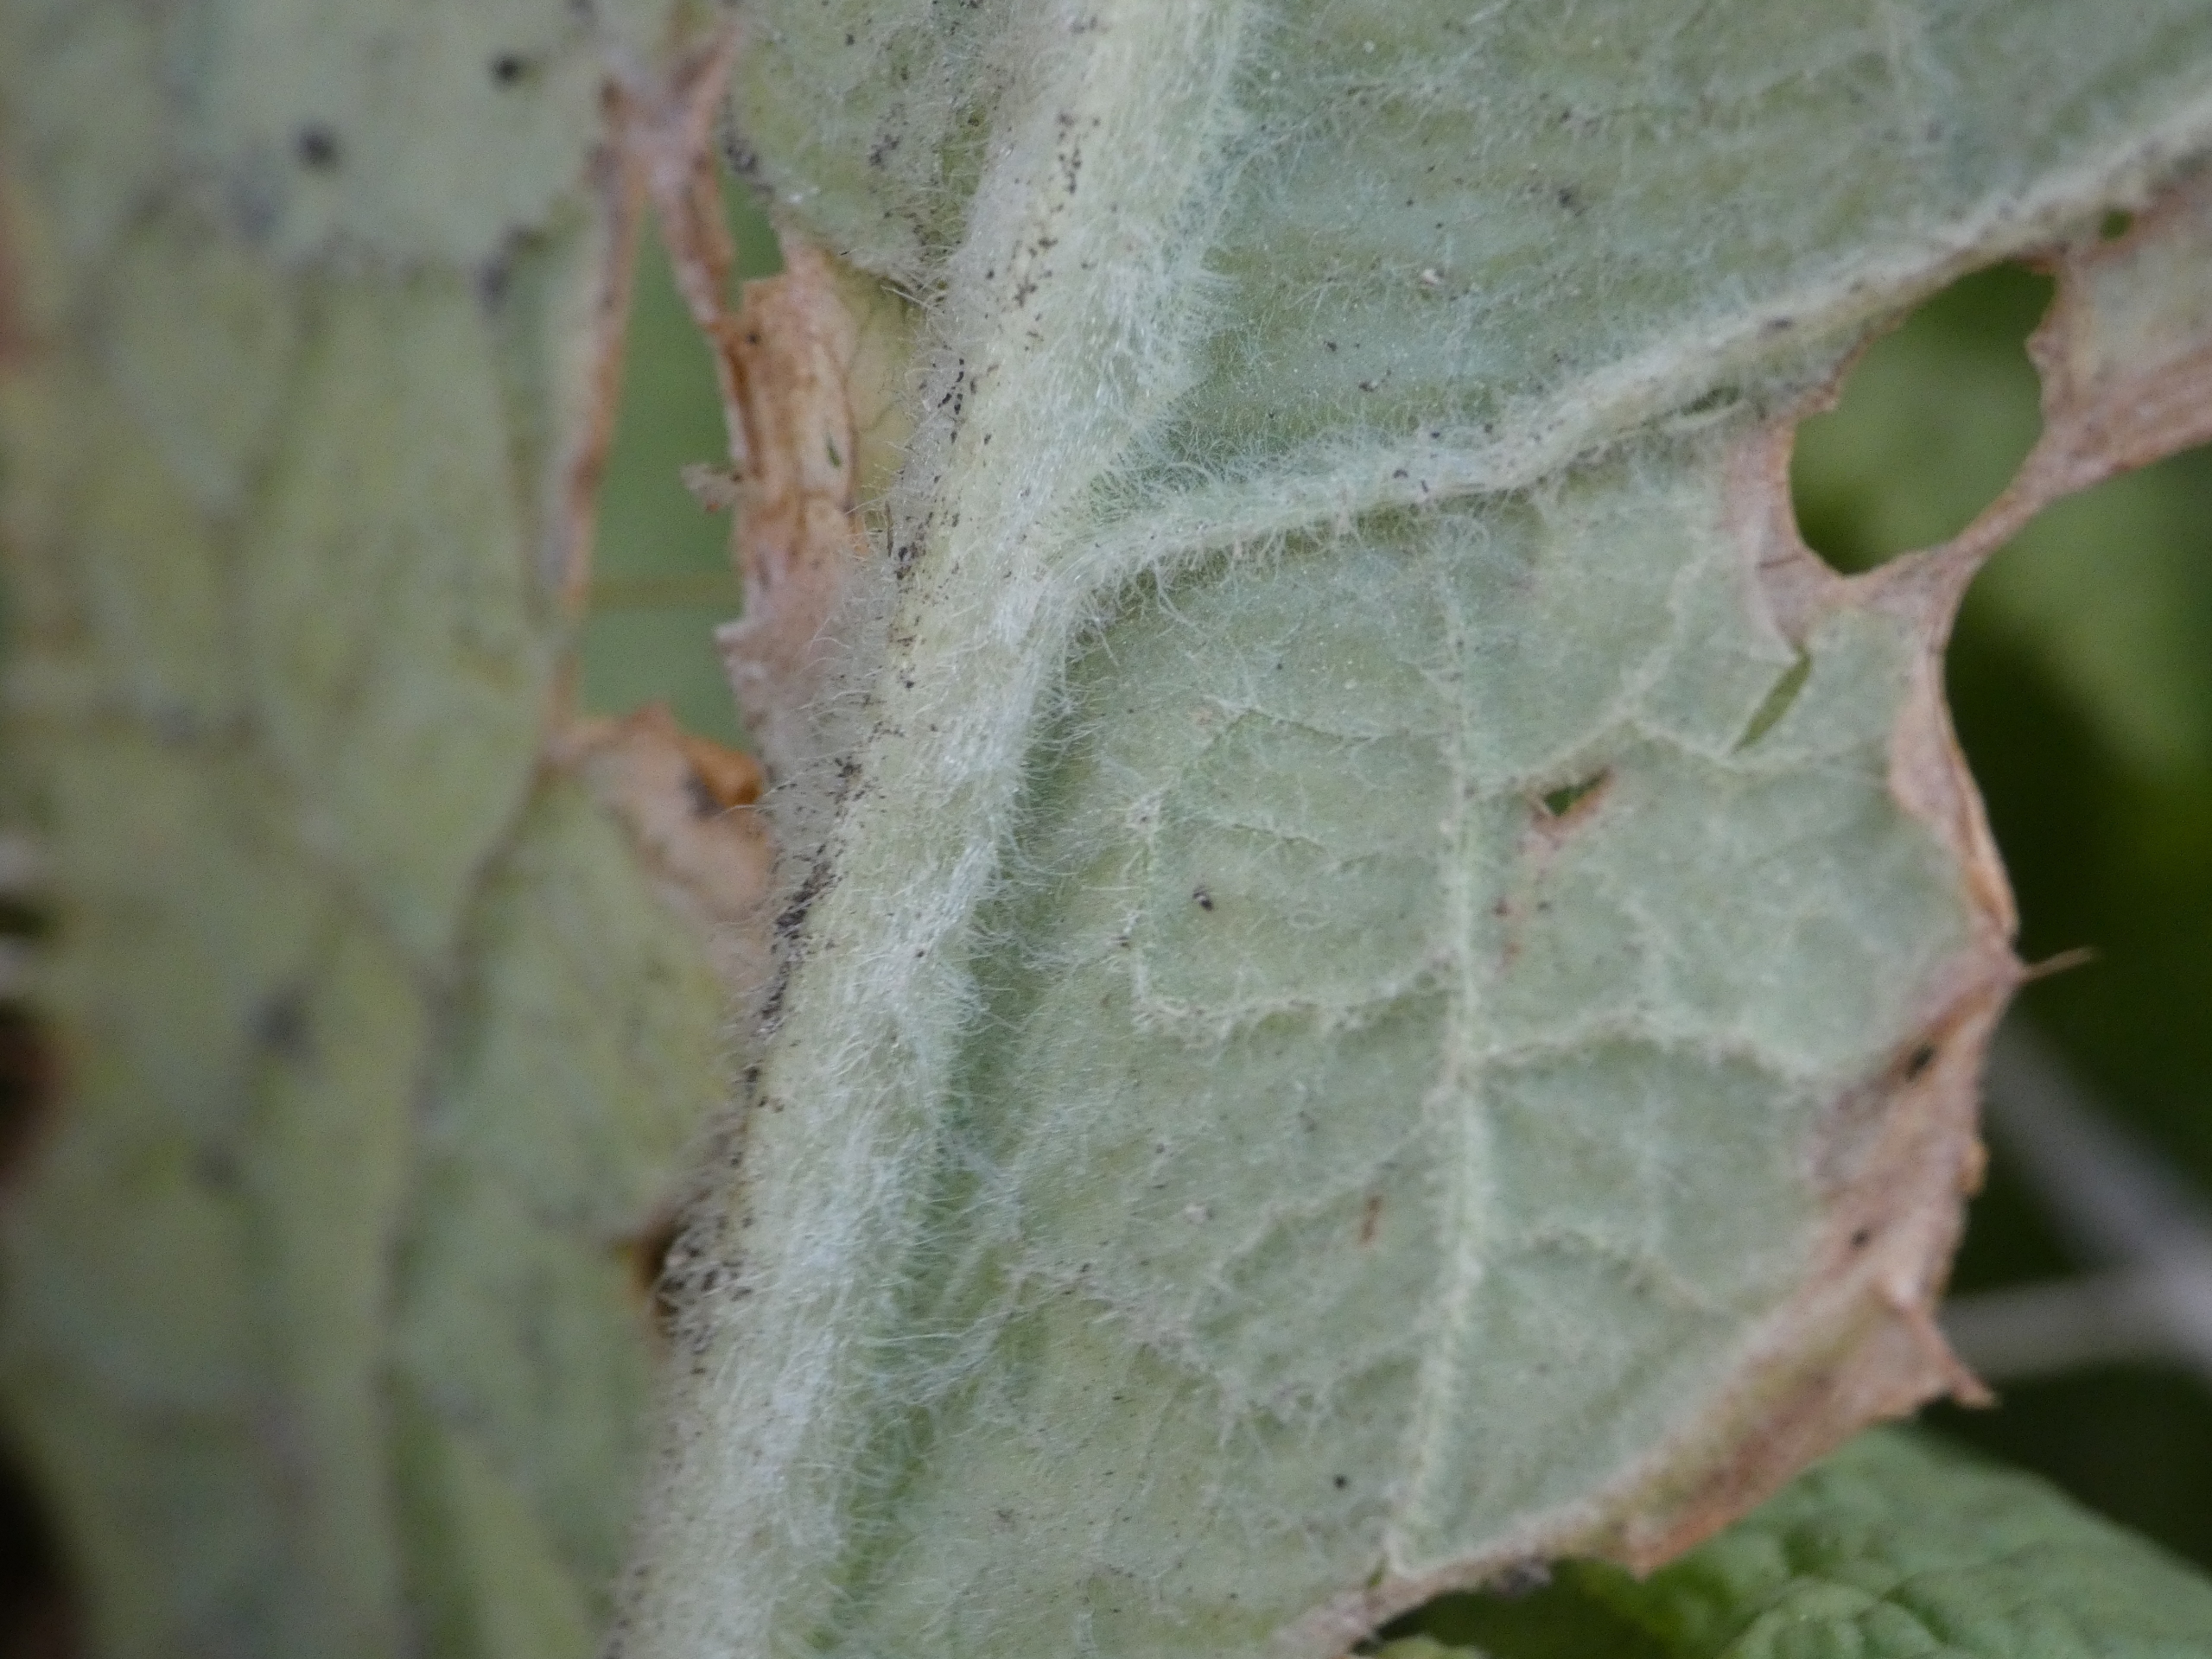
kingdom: Plantae
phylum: Tracheophyta
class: Magnoliopsida
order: Ericales
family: Primulaceae
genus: Primula
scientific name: Primula vulgaris
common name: Storblomstret kodriver
